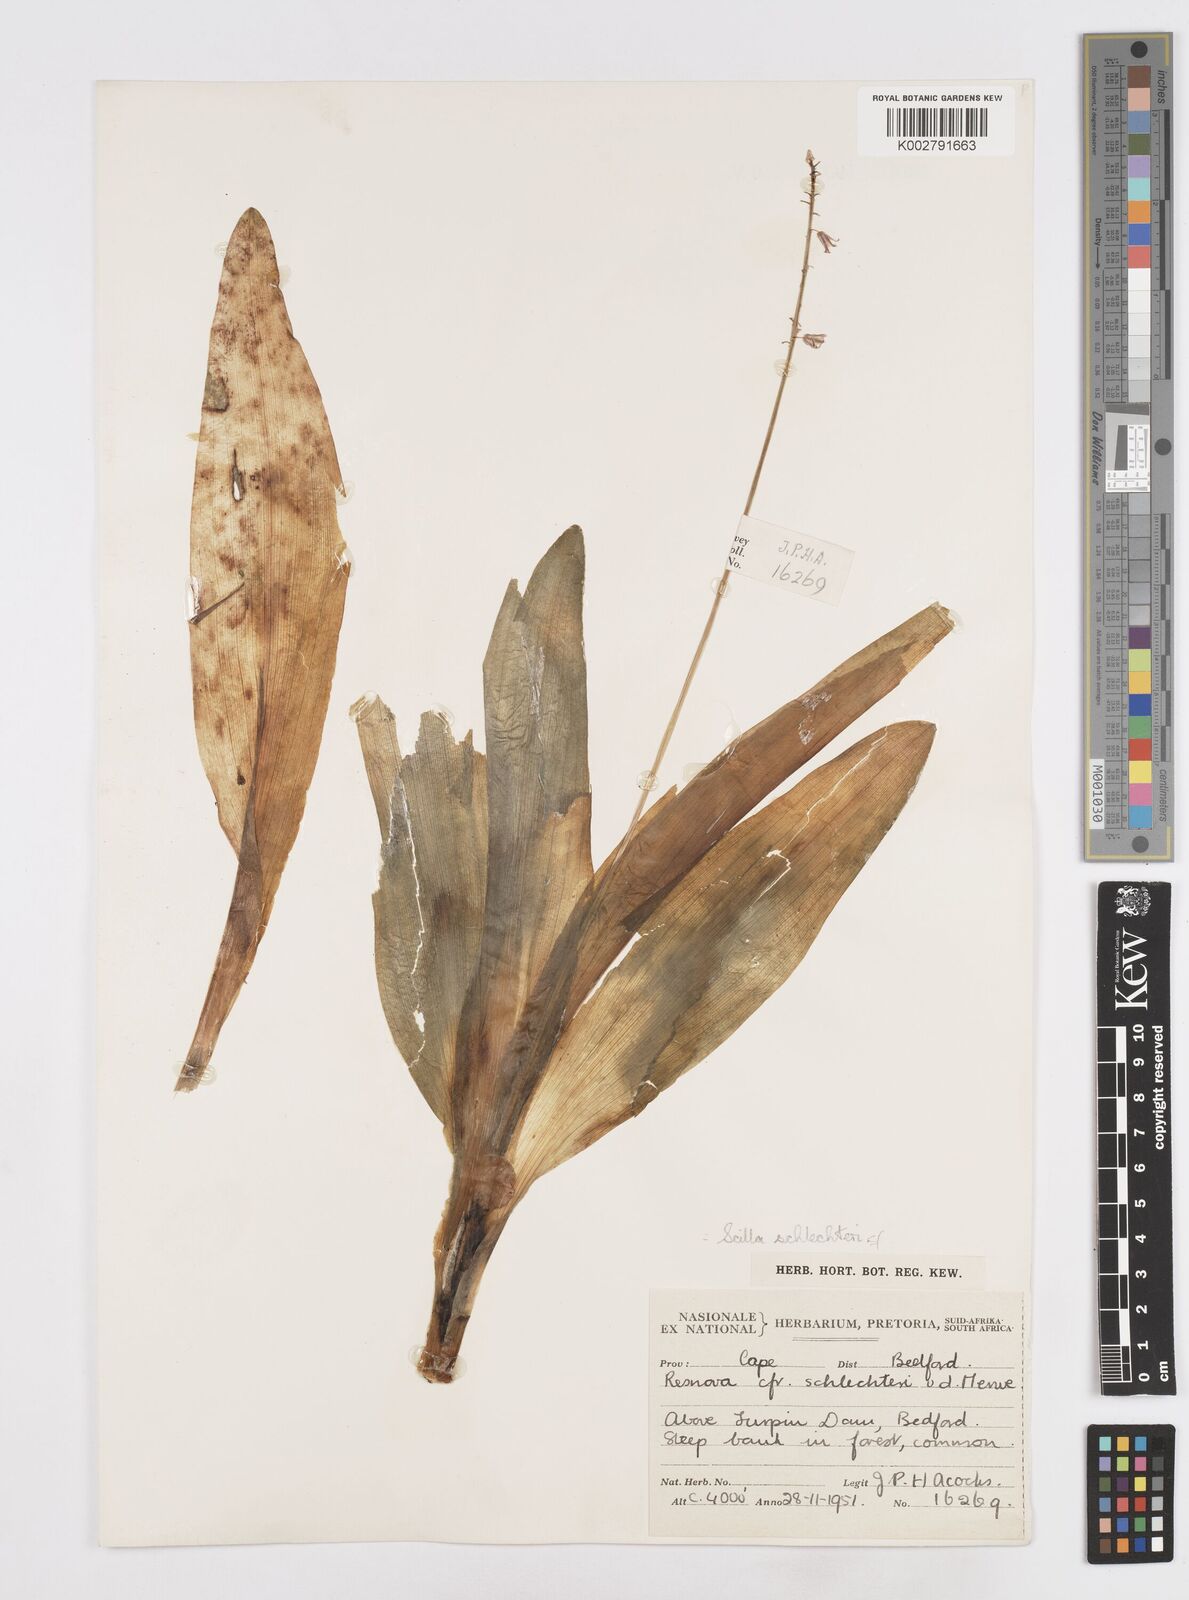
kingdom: Plantae
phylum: Tracheophyta
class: Liliopsida
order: Asparagales
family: Asparagaceae
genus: Scilla
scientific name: Scilla
